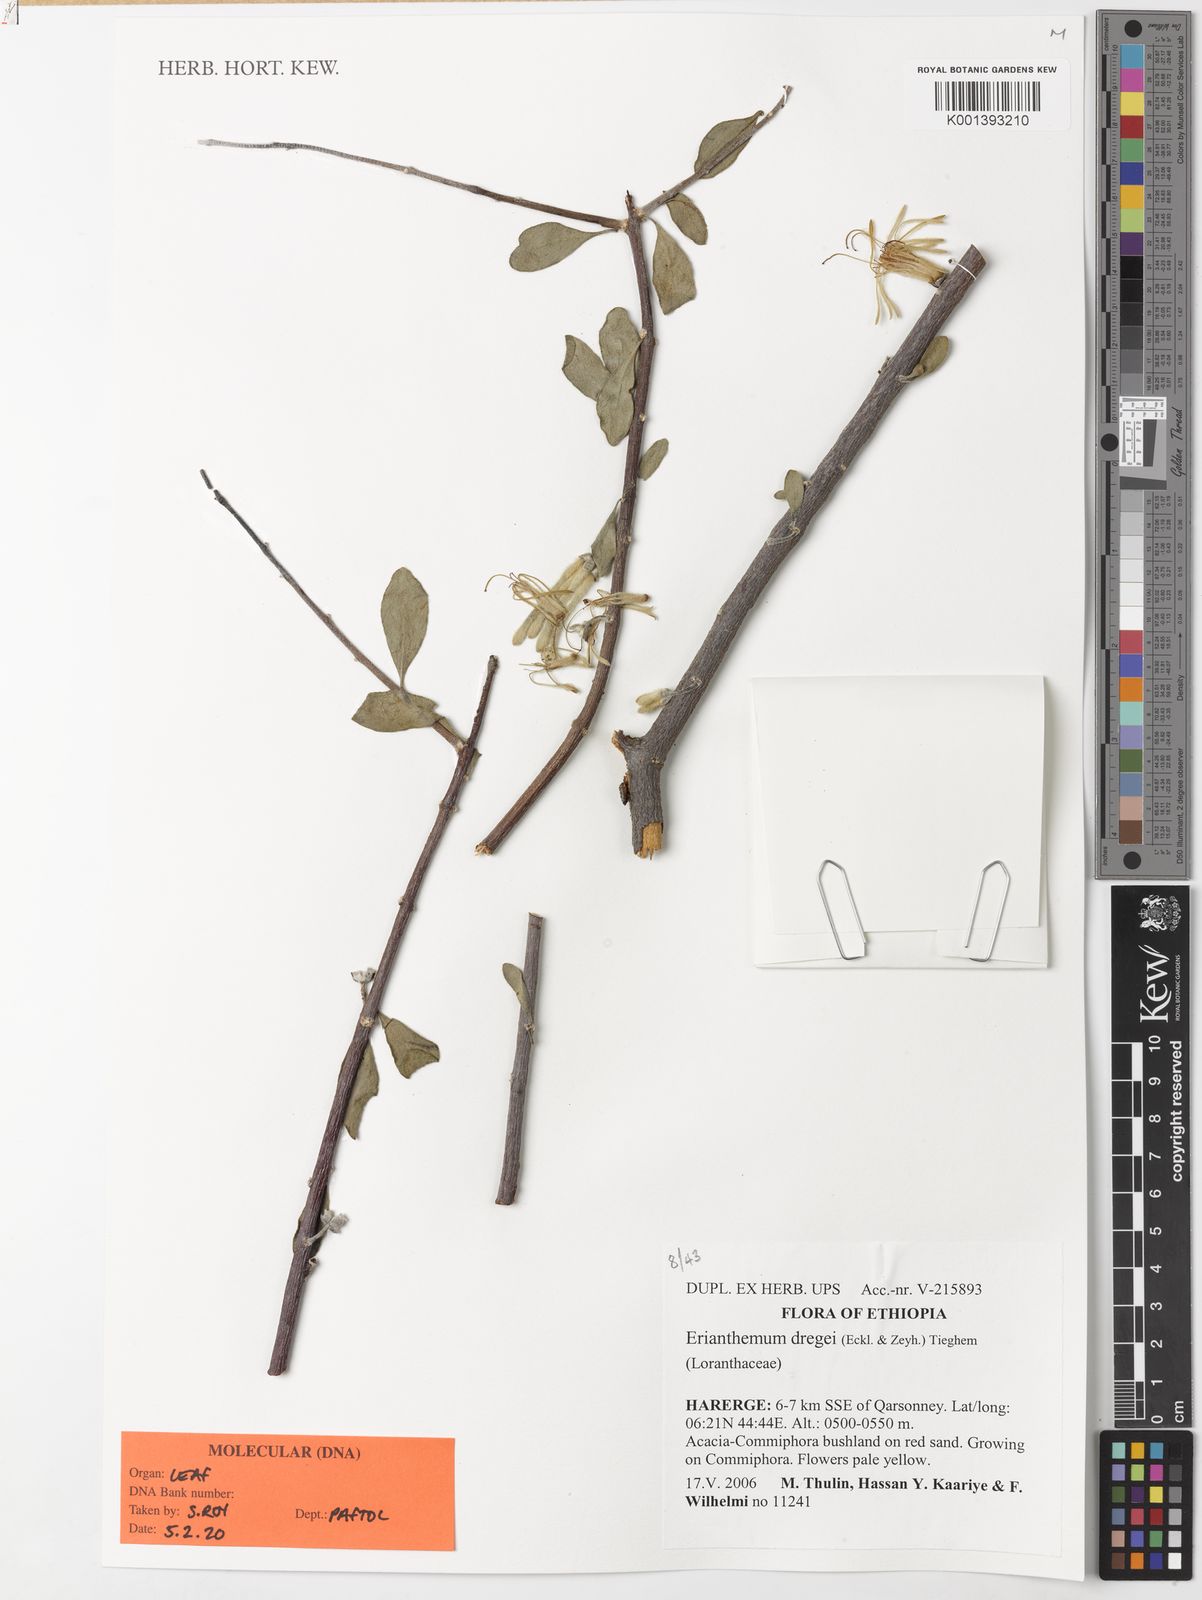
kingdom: Plantae
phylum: Tracheophyta
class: Magnoliopsida
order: Santalales
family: Loranthaceae
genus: Erianthemum
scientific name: Erianthemum dregei
